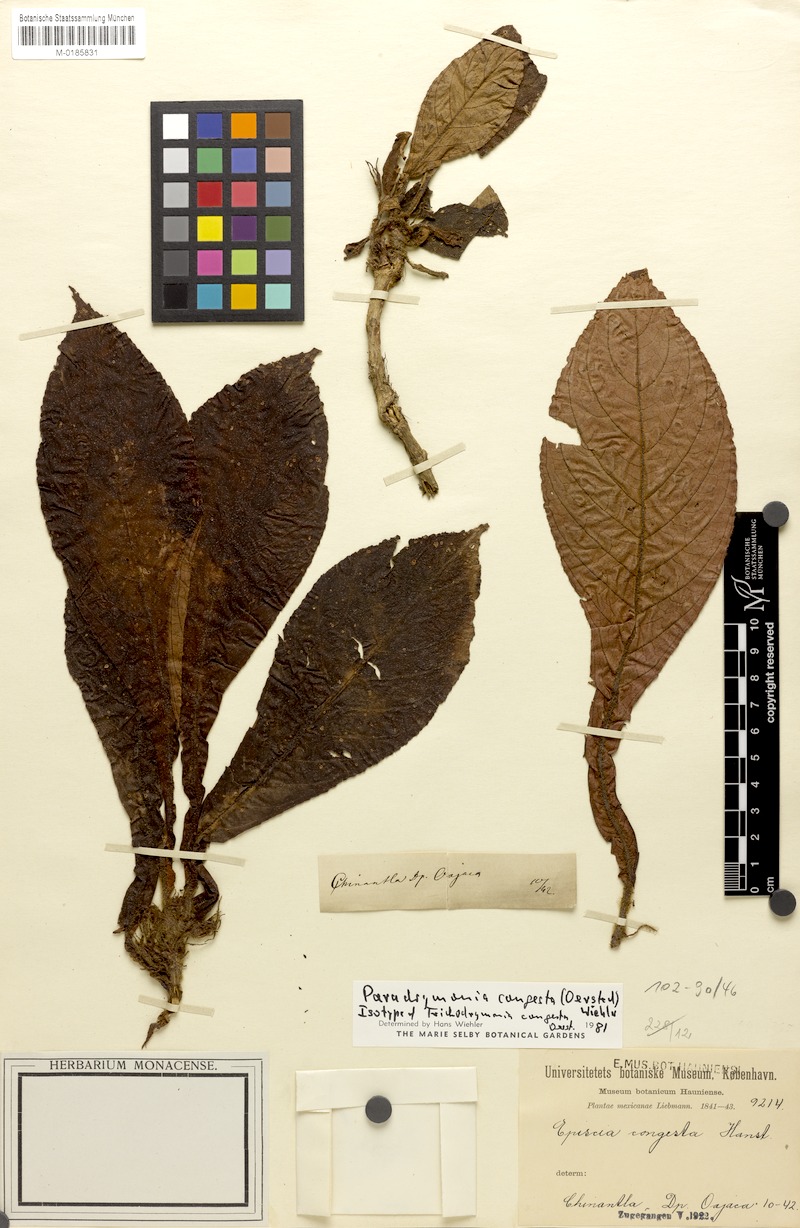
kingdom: Plantae
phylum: Tracheophyta
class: Magnoliopsida
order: Lamiales
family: Gesneriaceae
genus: Trichodrymonia
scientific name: Trichodrymonia congesta
